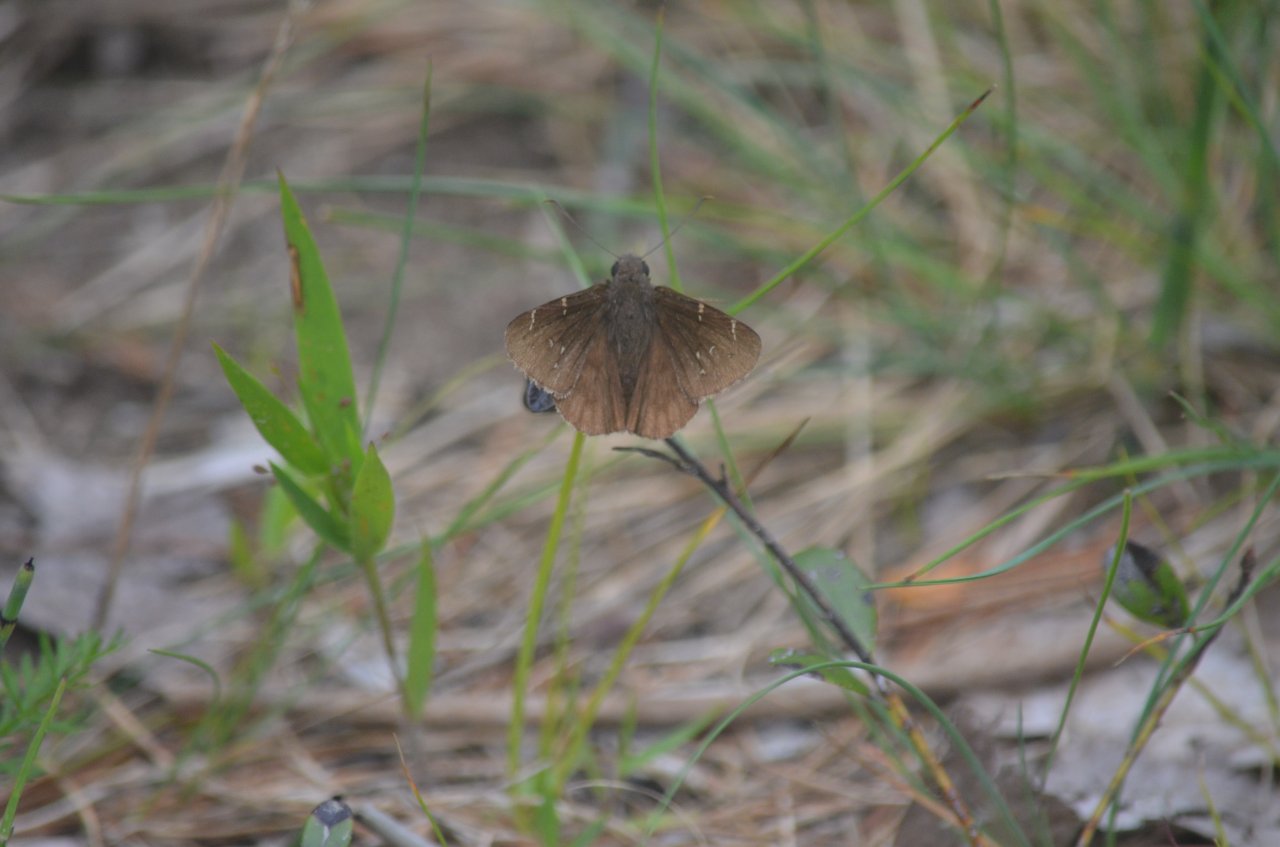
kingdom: Animalia
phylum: Arthropoda
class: Insecta
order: Lepidoptera
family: Hesperiidae
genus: Autochton
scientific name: Autochton
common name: Northern Cloudywing
